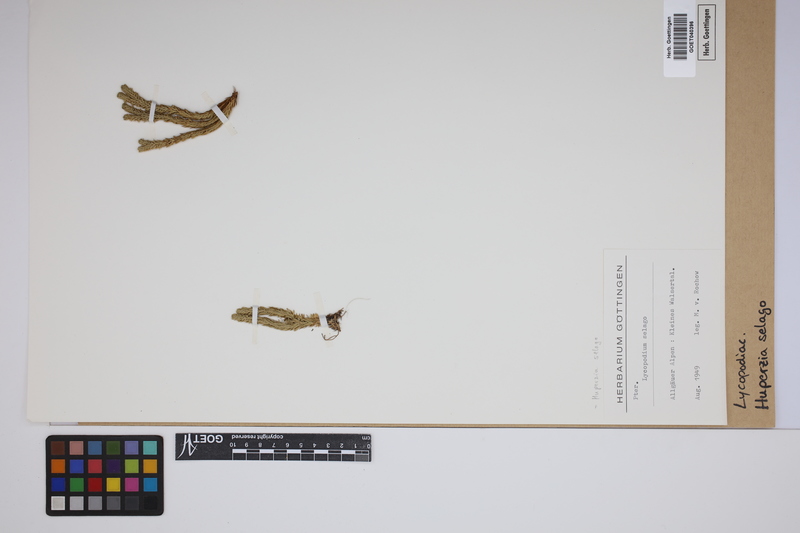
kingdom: Plantae
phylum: Tracheophyta
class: Lycopodiopsida
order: Lycopodiales
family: Lycopodiaceae
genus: Huperzia
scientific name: Huperzia selago
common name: Northern firmoss
